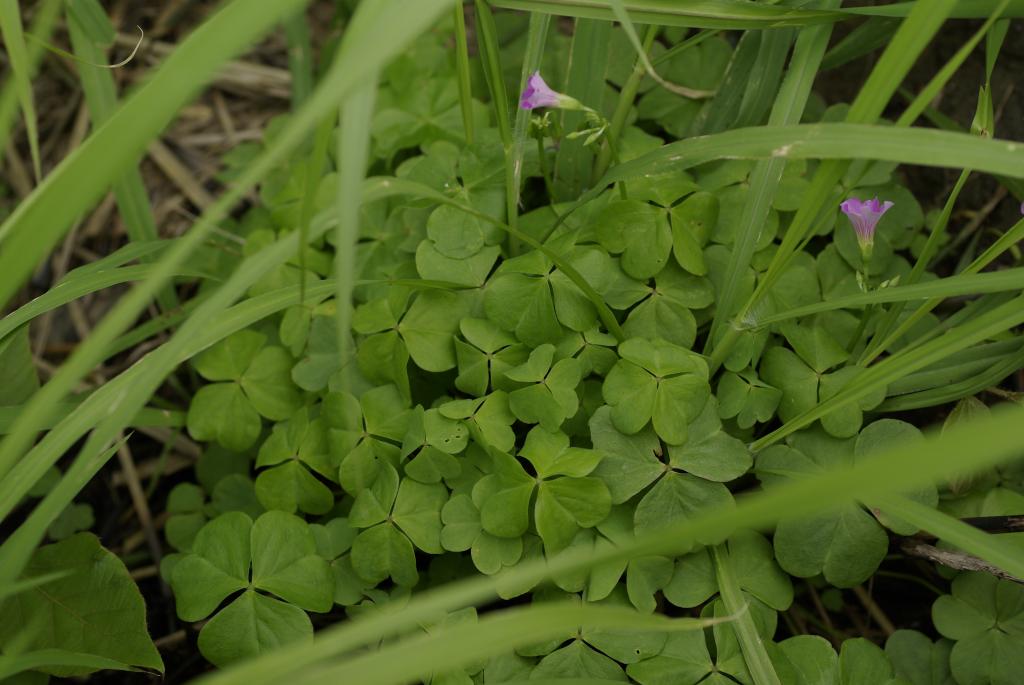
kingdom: Plantae
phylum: Tracheophyta
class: Magnoliopsida
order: Oxalidales
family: Oxalidaceae
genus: Oxalis
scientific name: Oxalis debilis
